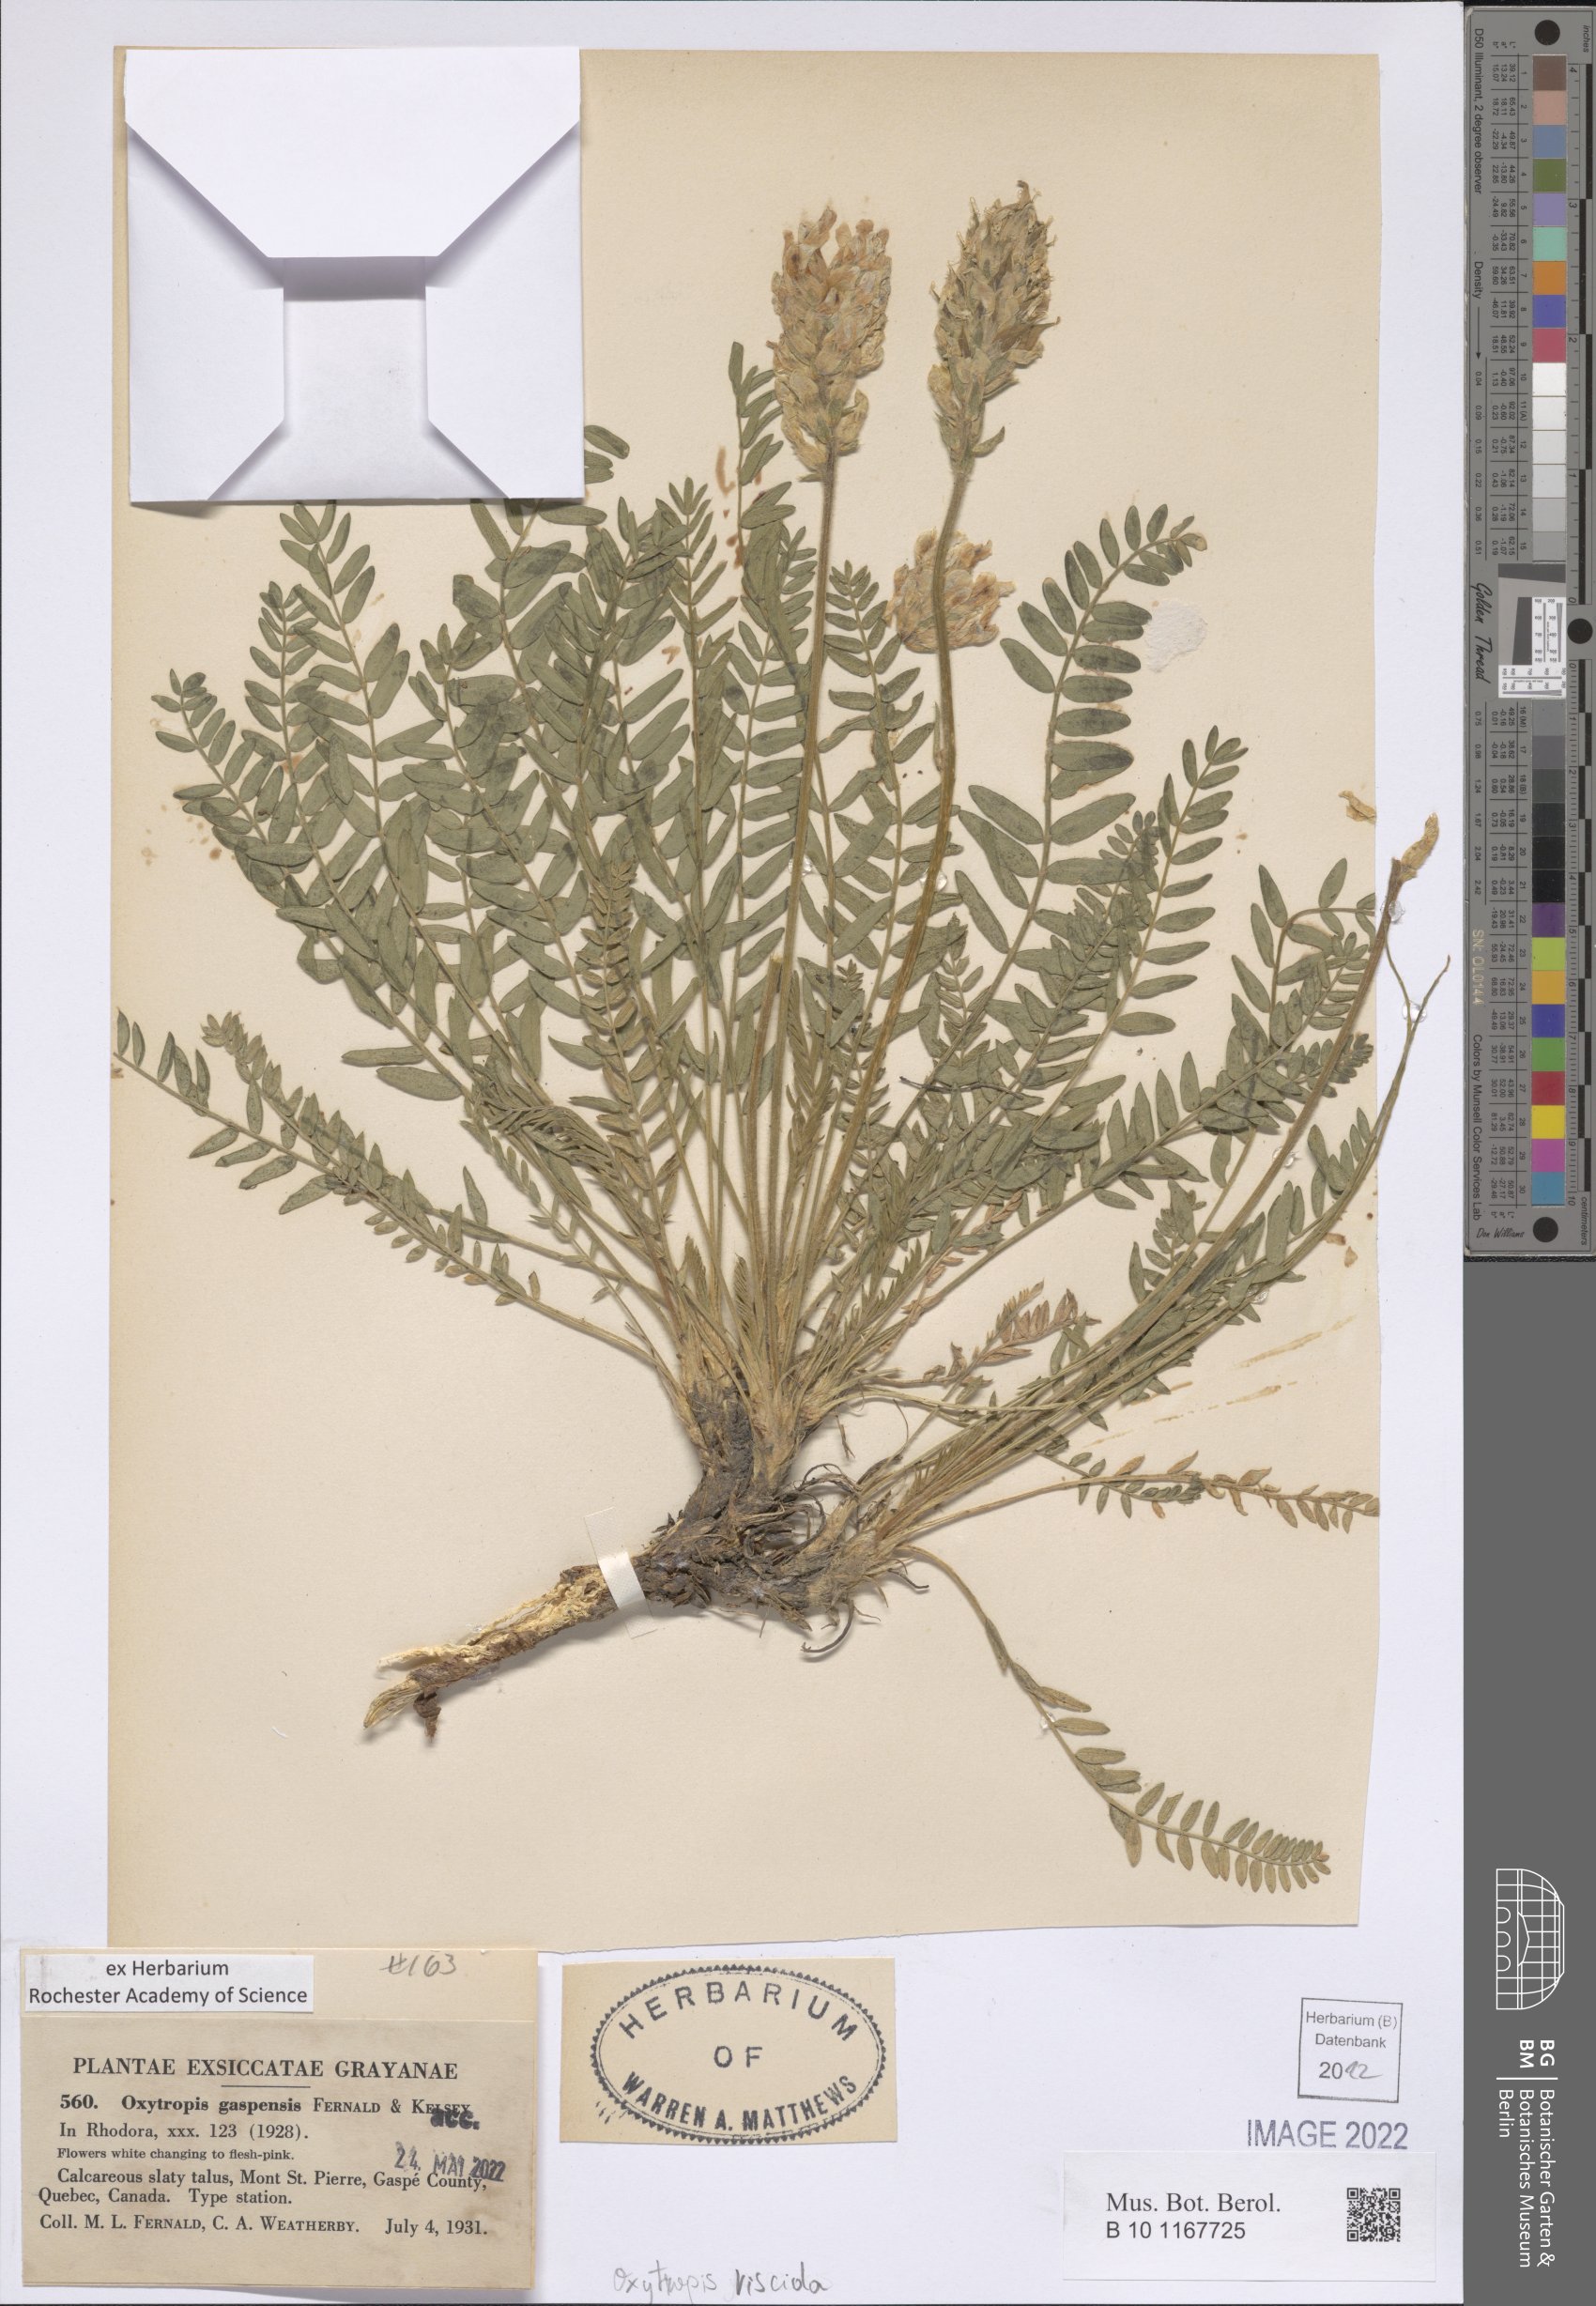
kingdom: Plantae
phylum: Tracheophyta
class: Magnoliopsida
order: Fabales
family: Fabaceae
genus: Oxytropis
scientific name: Oxytropis borealis
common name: Boreal locoweed
